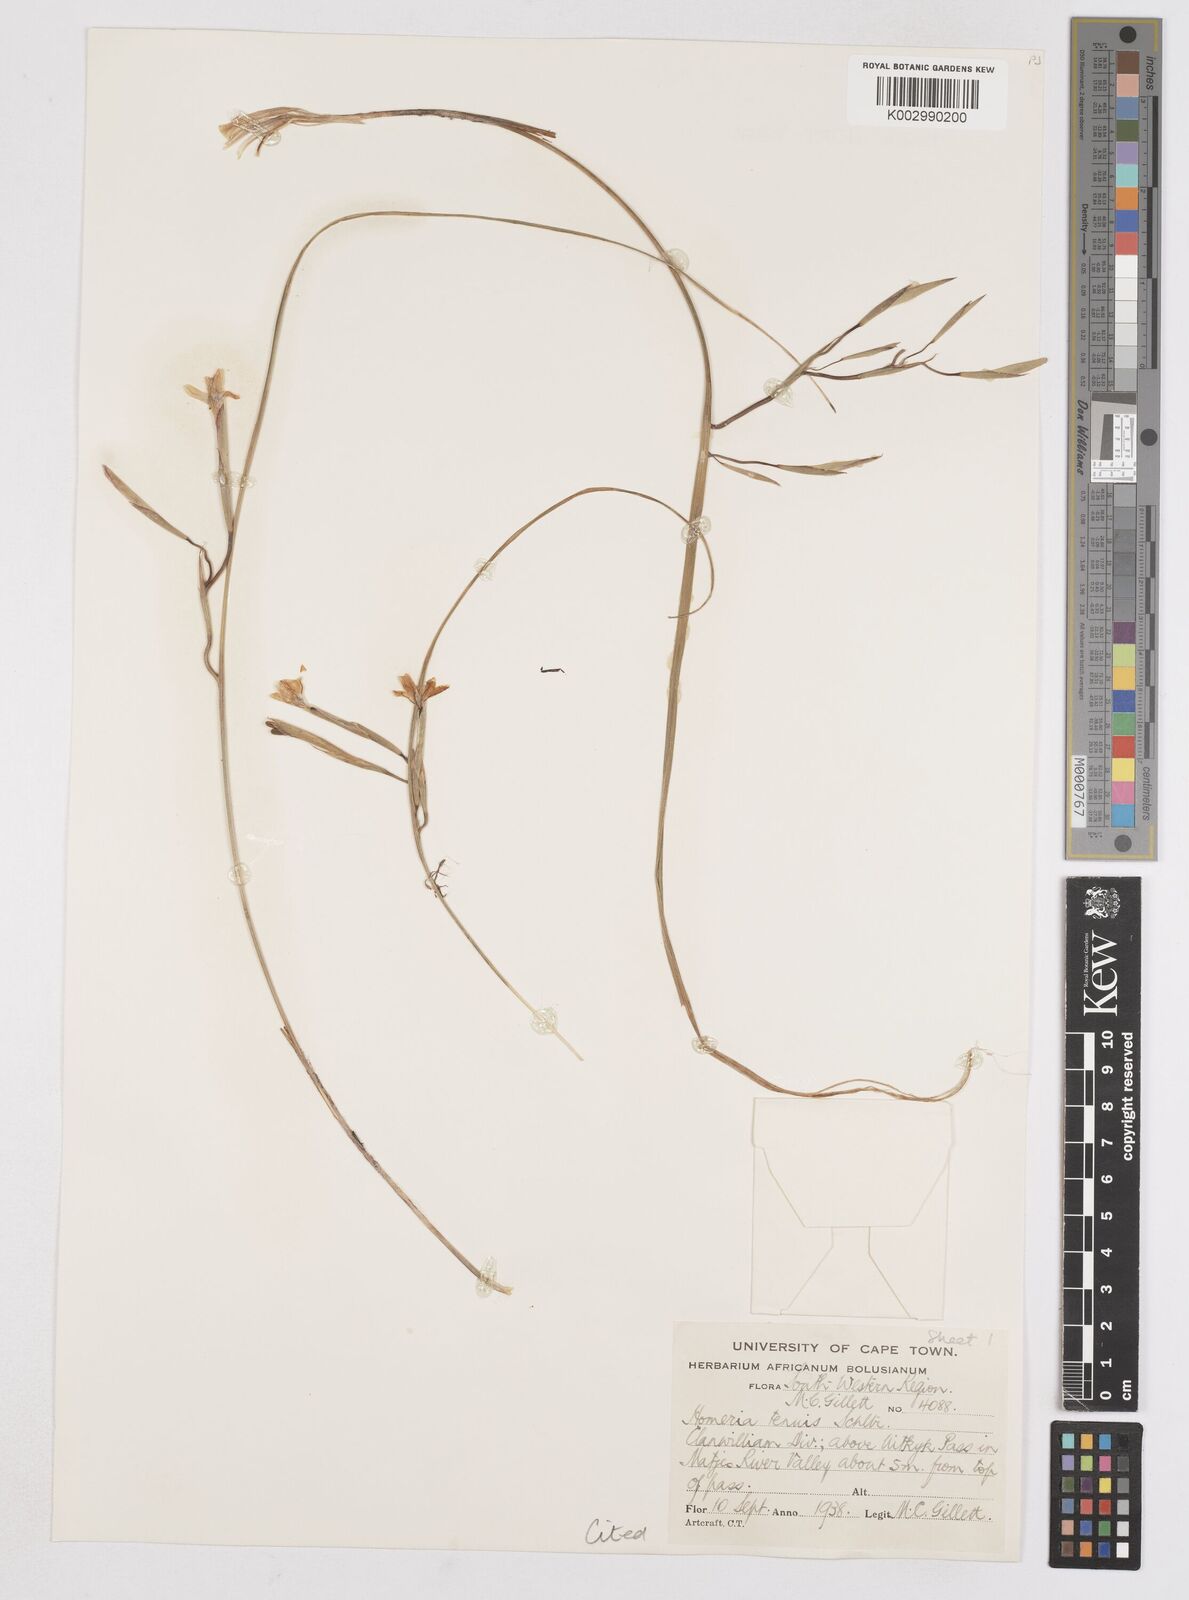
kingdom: Plantae
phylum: Tracheophyta
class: Liliopsida
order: Asparagales
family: Iridaceae
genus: Moraea
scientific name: Moraea unguiculata
